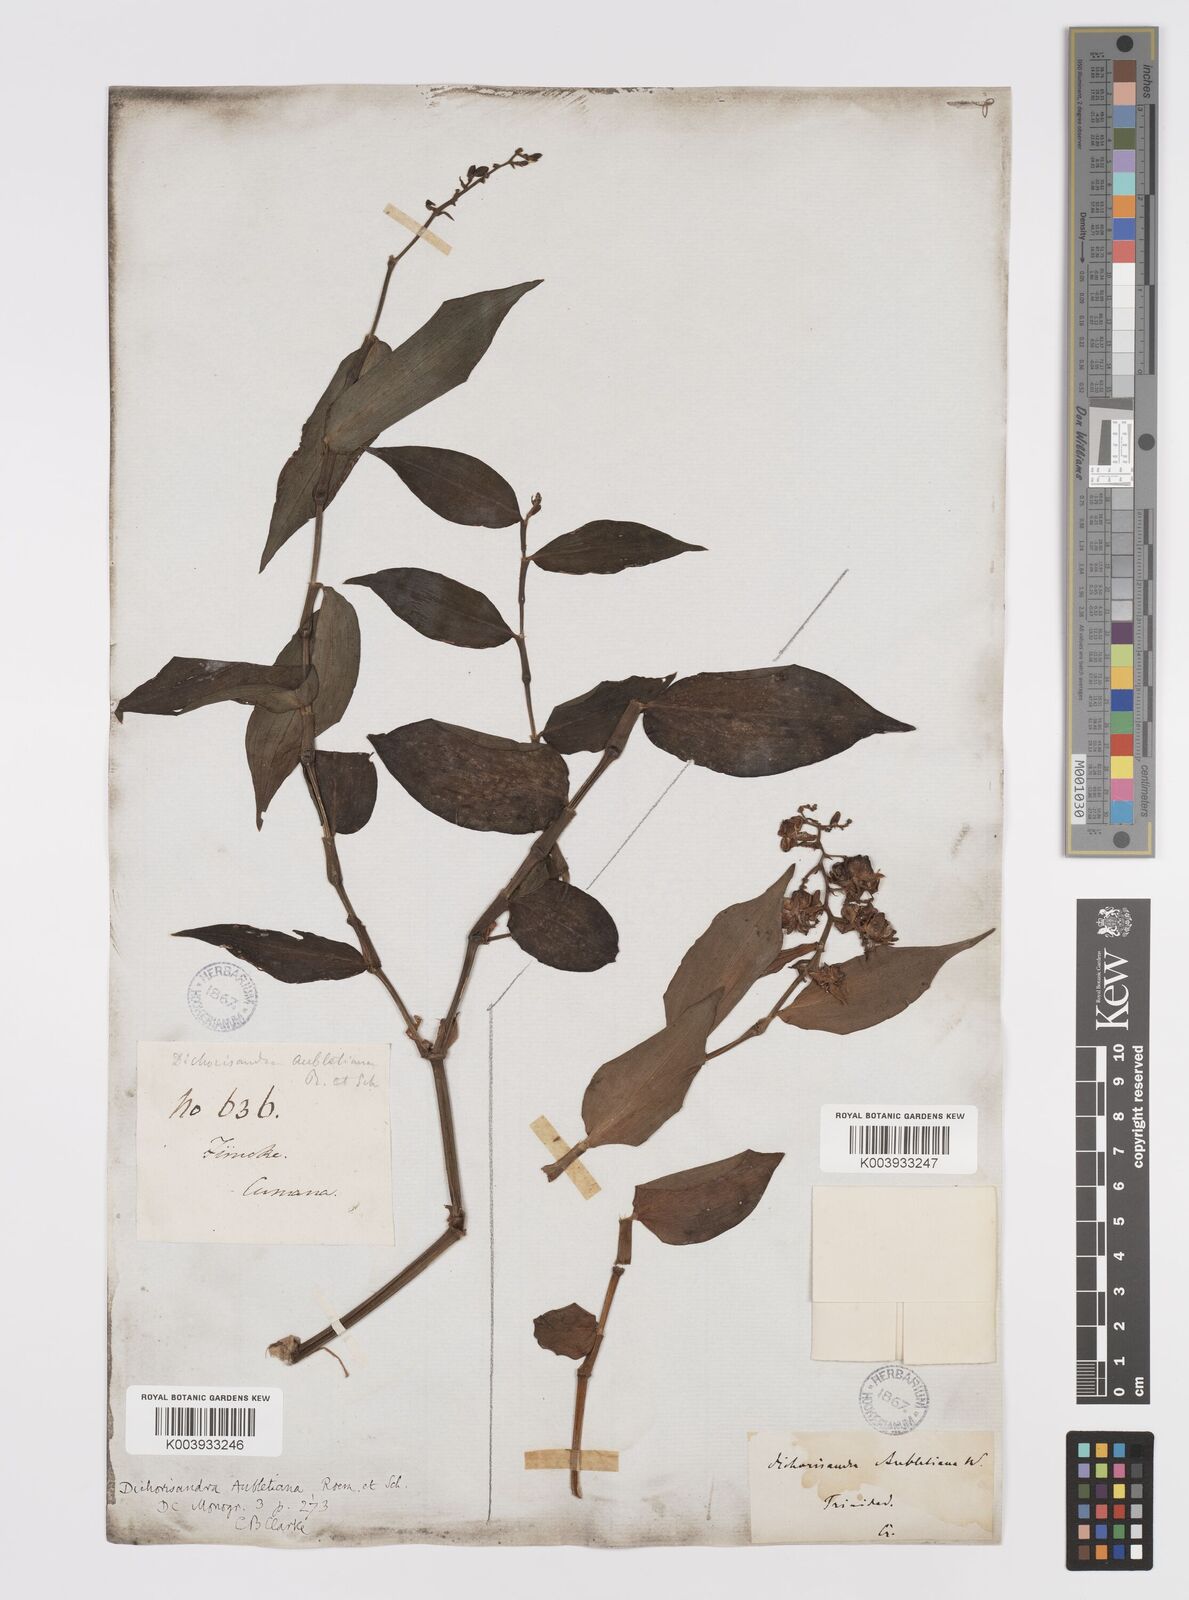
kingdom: Plantae
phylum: Tracheophyta
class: Liliopsida
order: Commelinales
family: Commelinaceae
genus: Dichorisandra
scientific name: Dichorisandra hexandra
